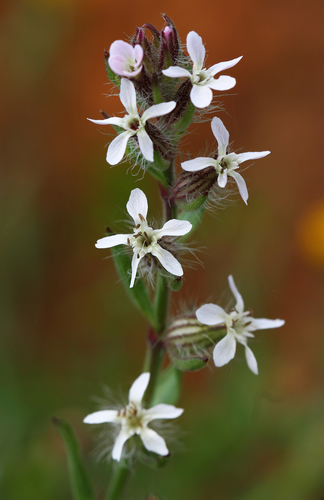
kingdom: Plantae
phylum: Tracheophyta
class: Magnoliopsida
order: Caryophyllales
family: Caryophyllaceae
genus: Silene
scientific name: Silene gallica
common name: Small-flowered catchfly
